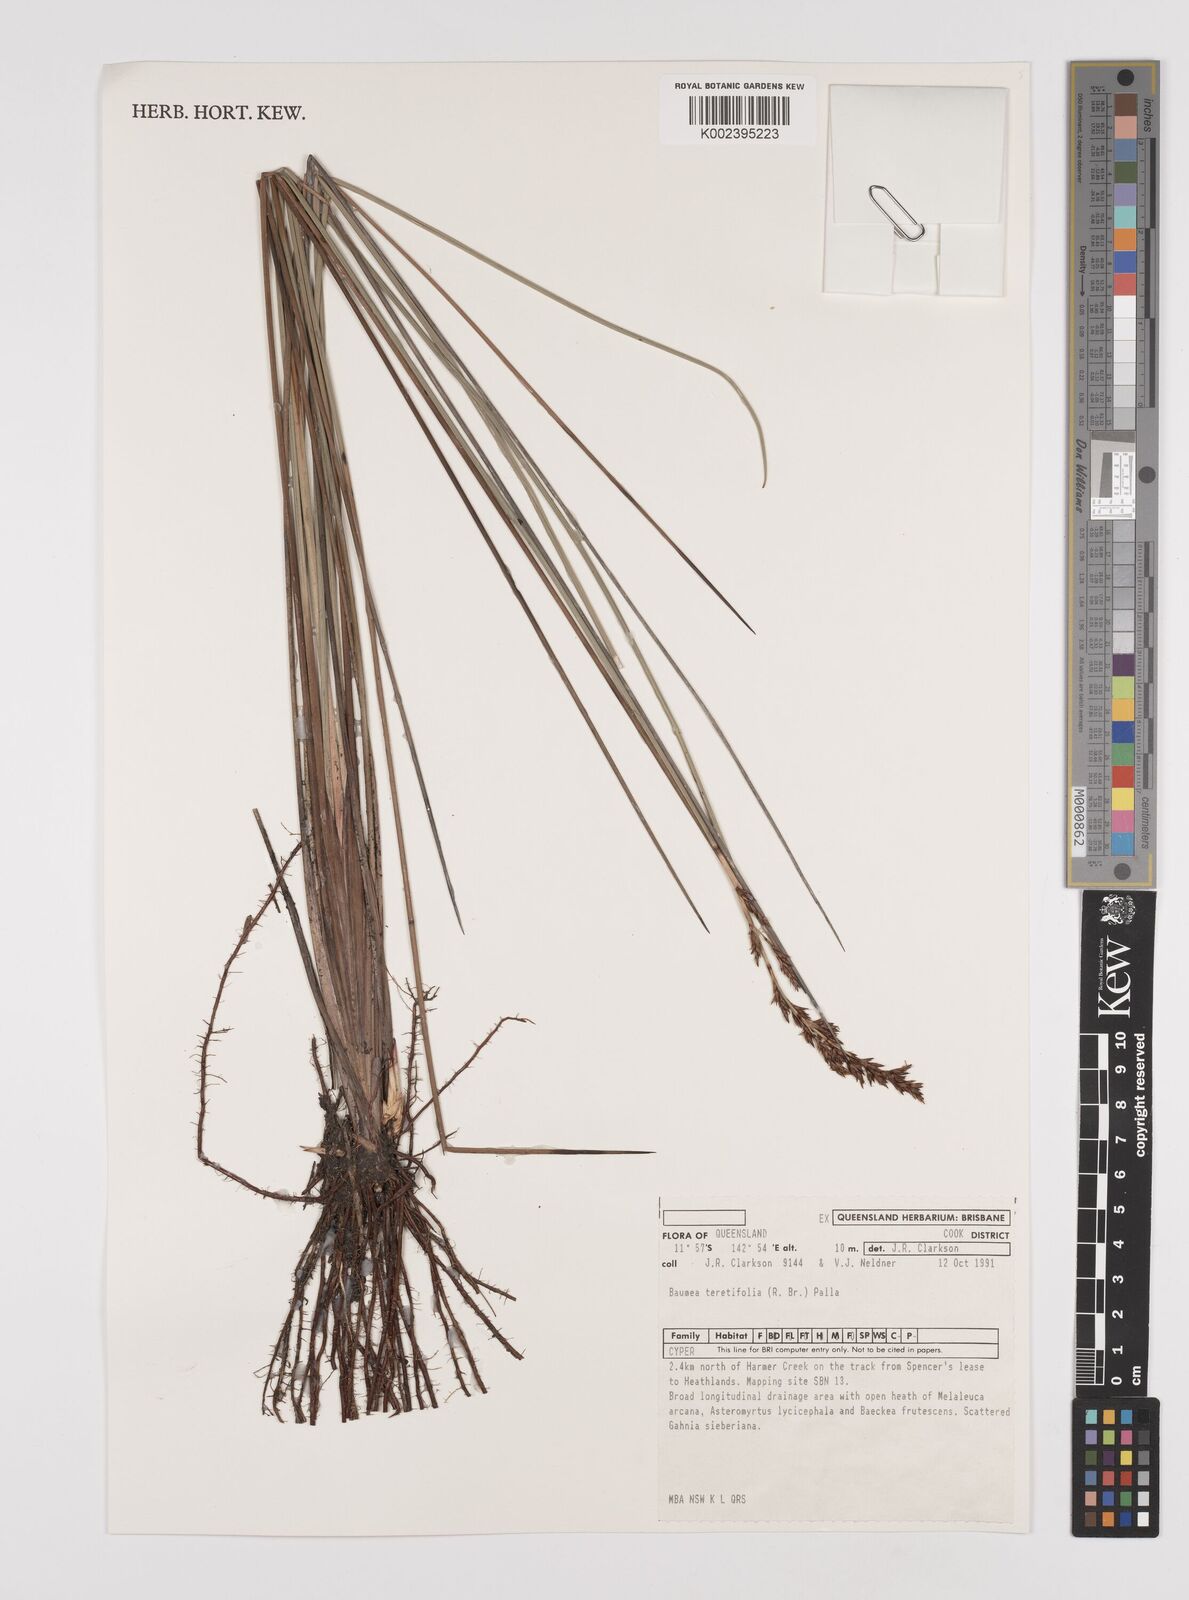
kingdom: Plantae
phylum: Tracheophyta
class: Liliopsida
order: Poales
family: Cyperaceae
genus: Machaerina
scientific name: Machaerina teretifolia
